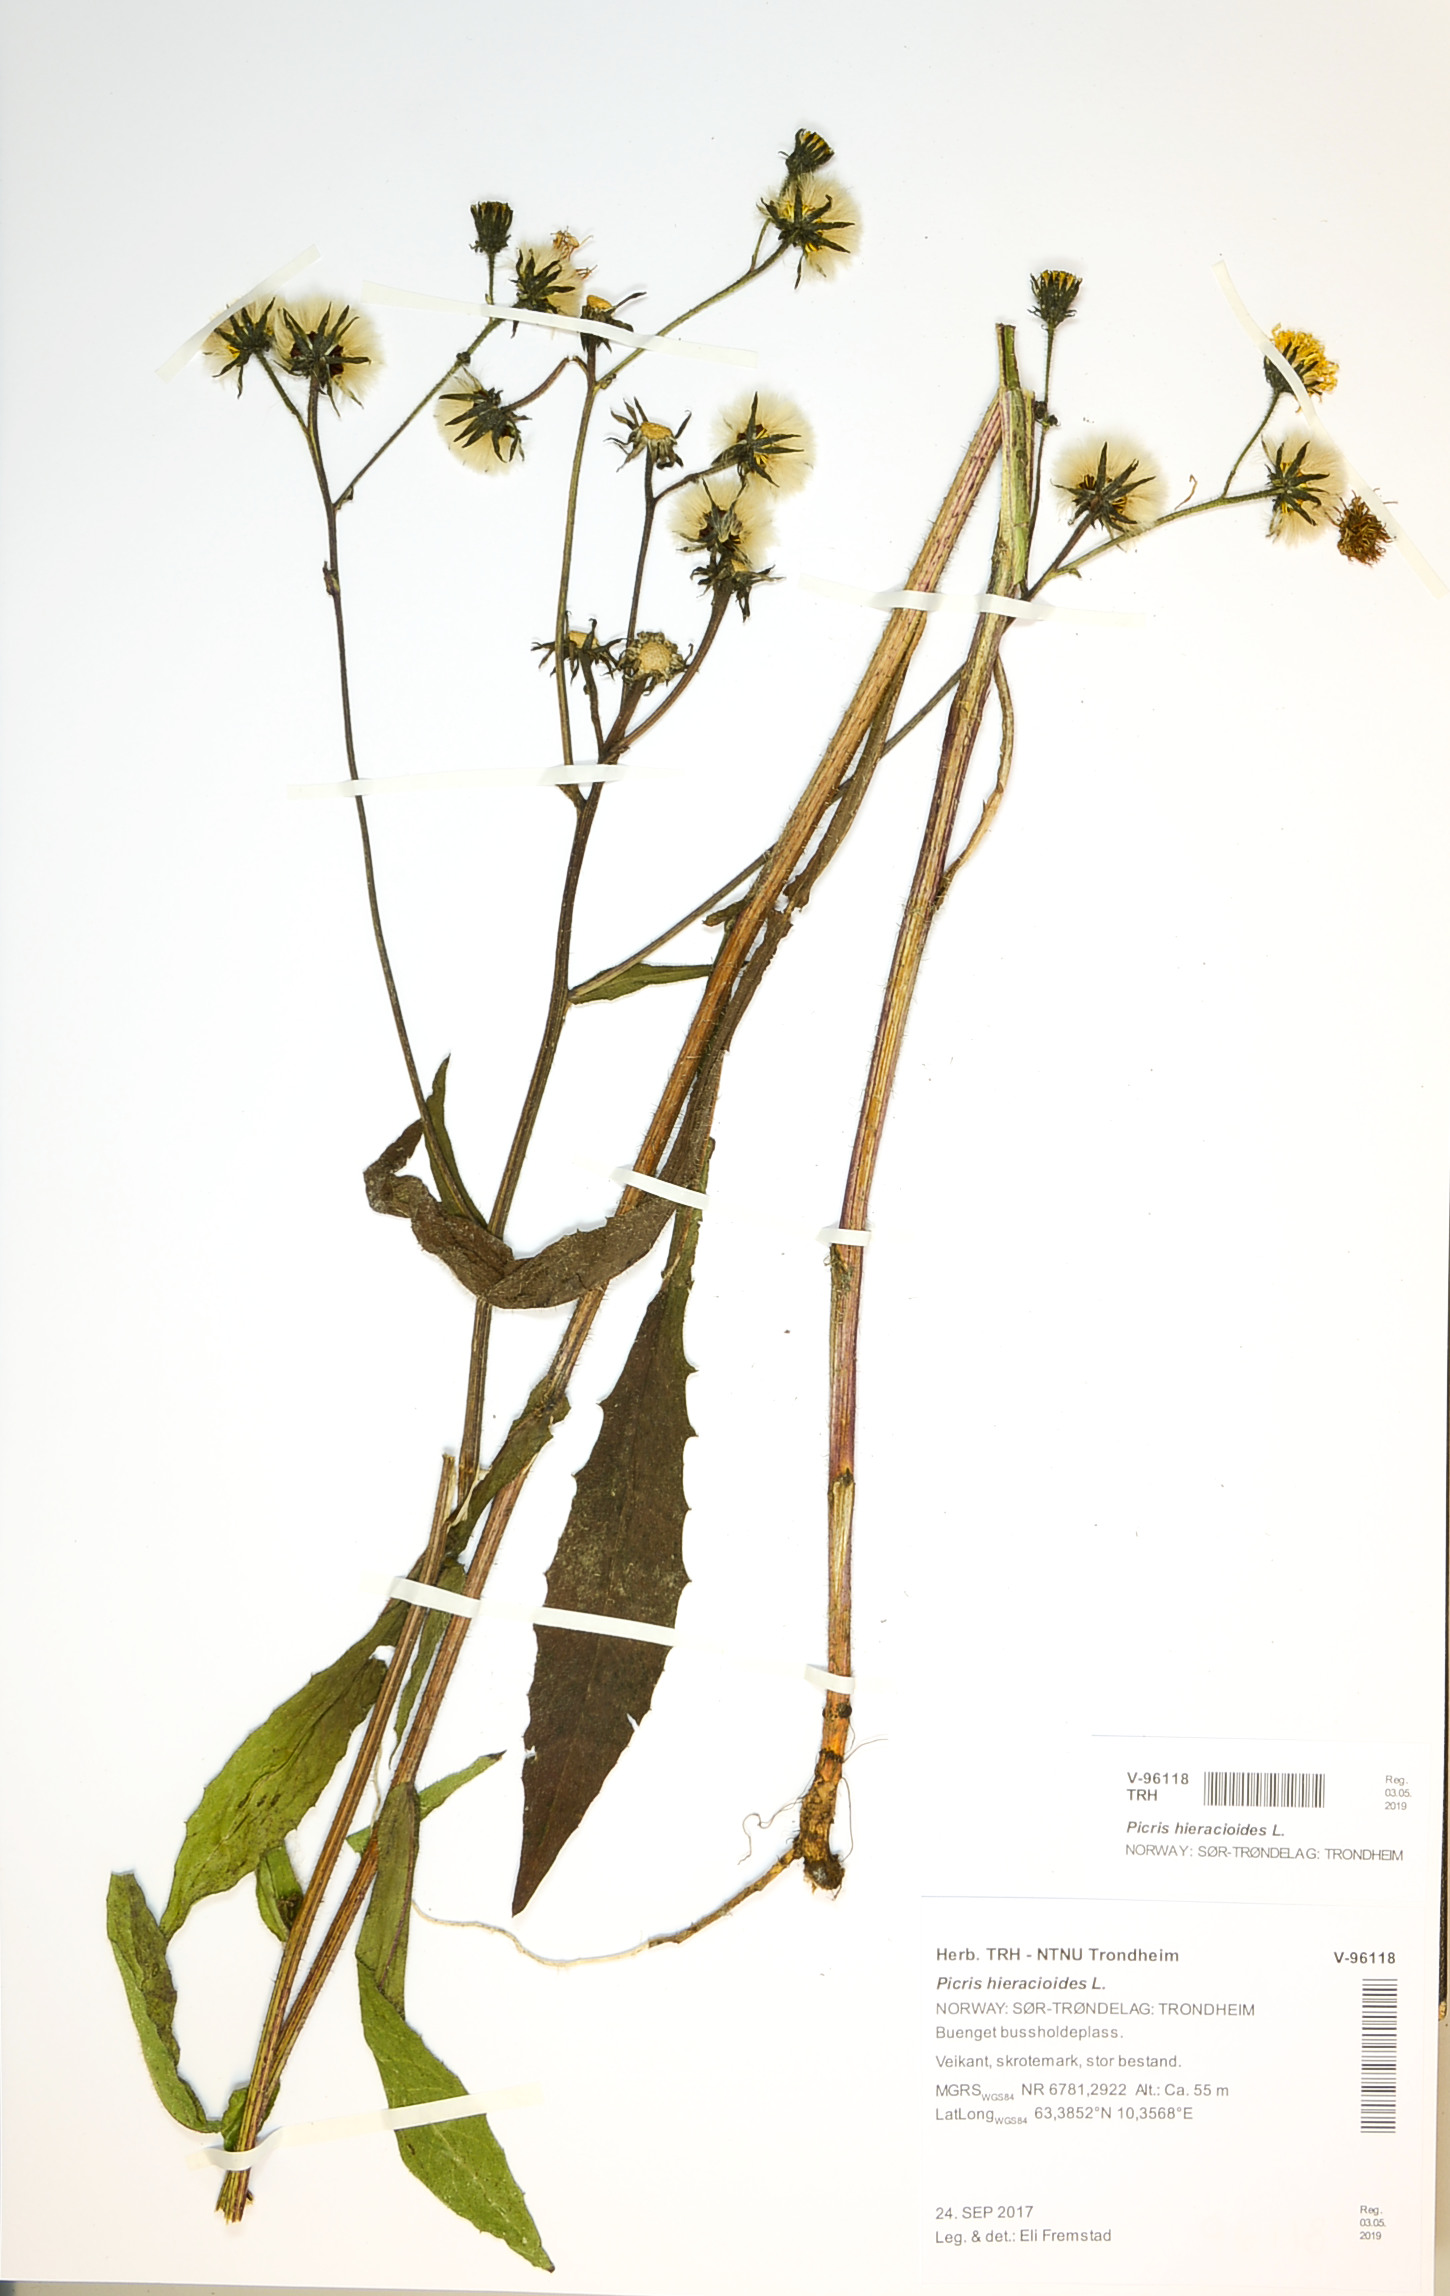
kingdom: Plantae
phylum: Tracheophyta
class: Magnoliopsida
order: Asterales
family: Asteraceae
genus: Picris
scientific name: Picris hieracioides
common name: Hawkweed oxtongue
